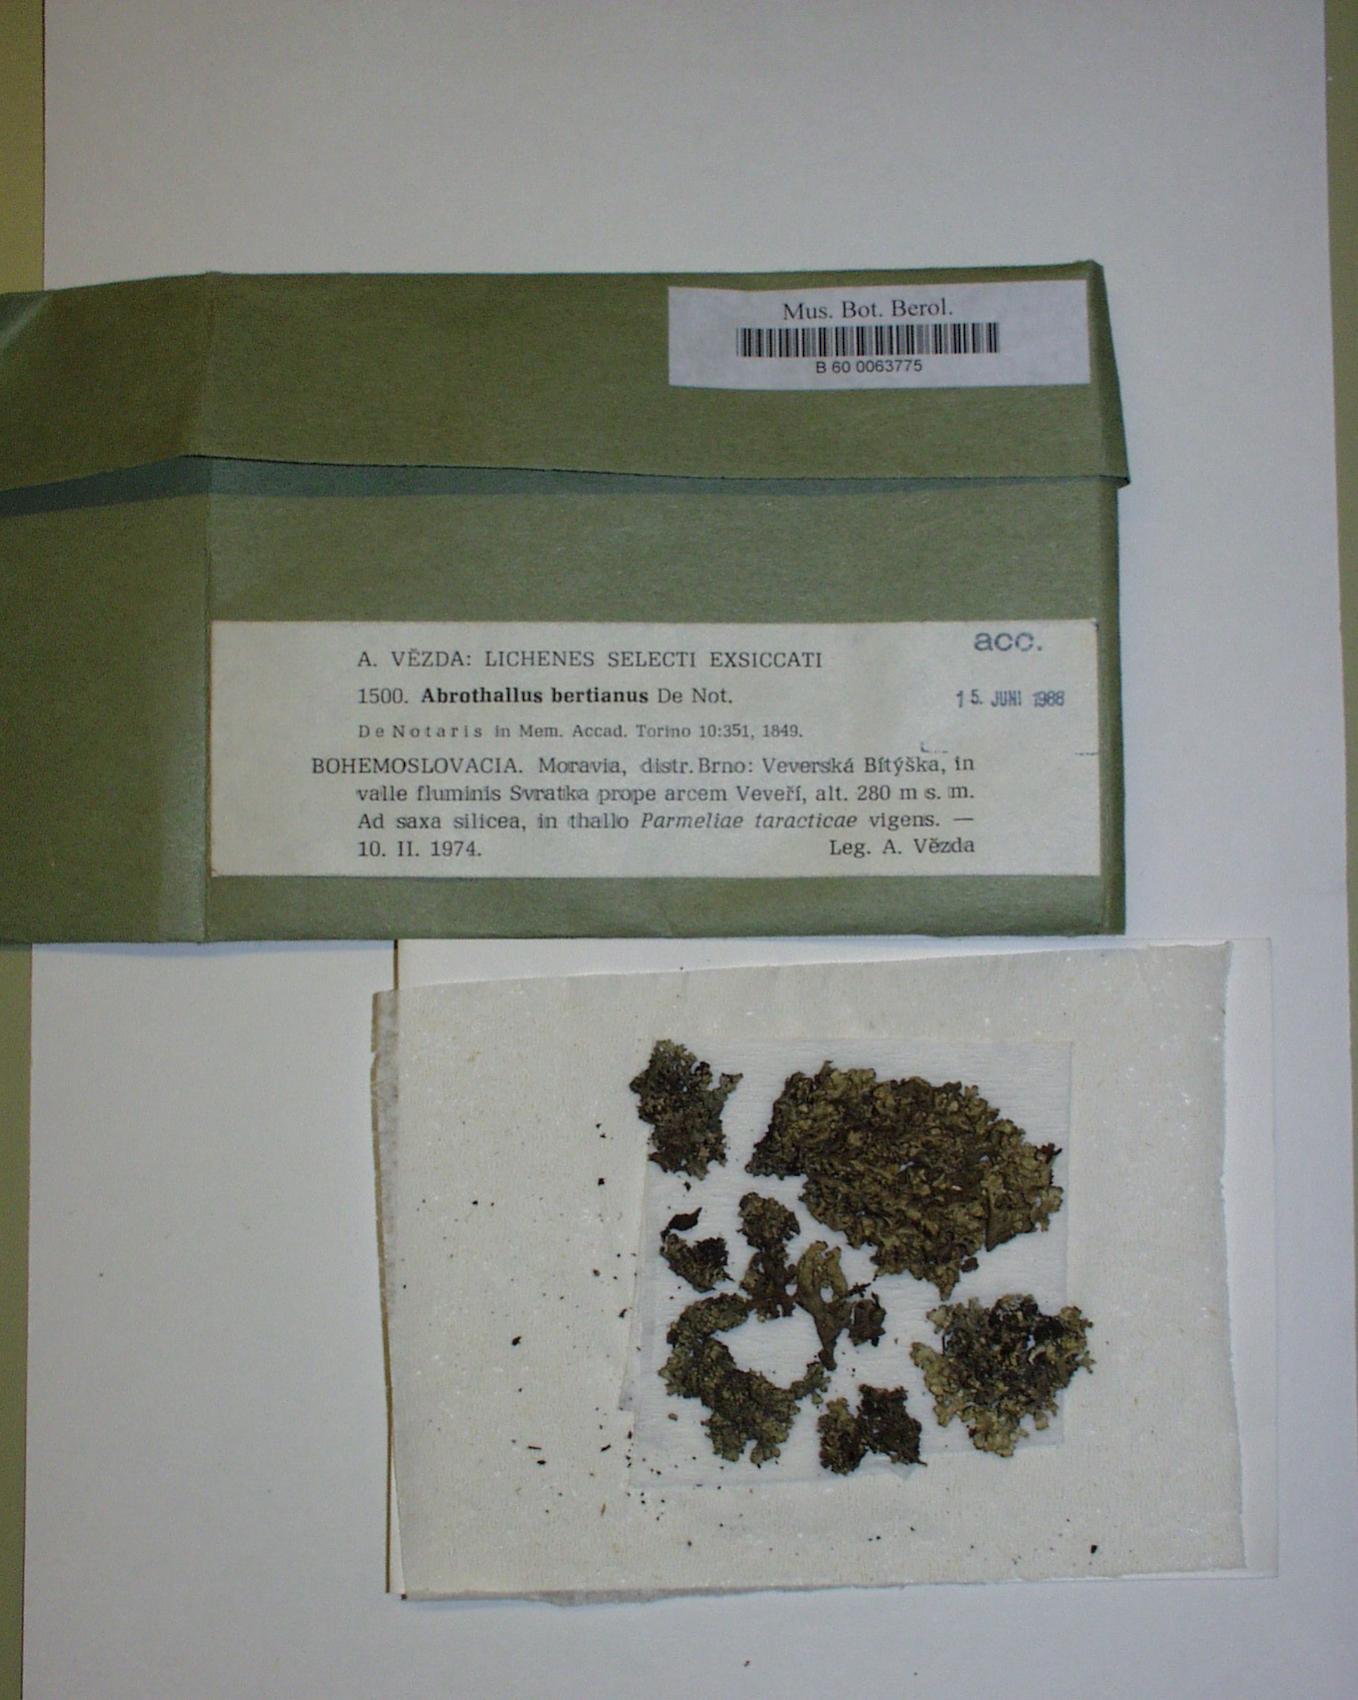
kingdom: Fungi
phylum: Ascomycota
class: Dothideomycetes
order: Abrothallales
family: Abrothallaceae
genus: Abrothallus
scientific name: Abrothallus parmeliarum
